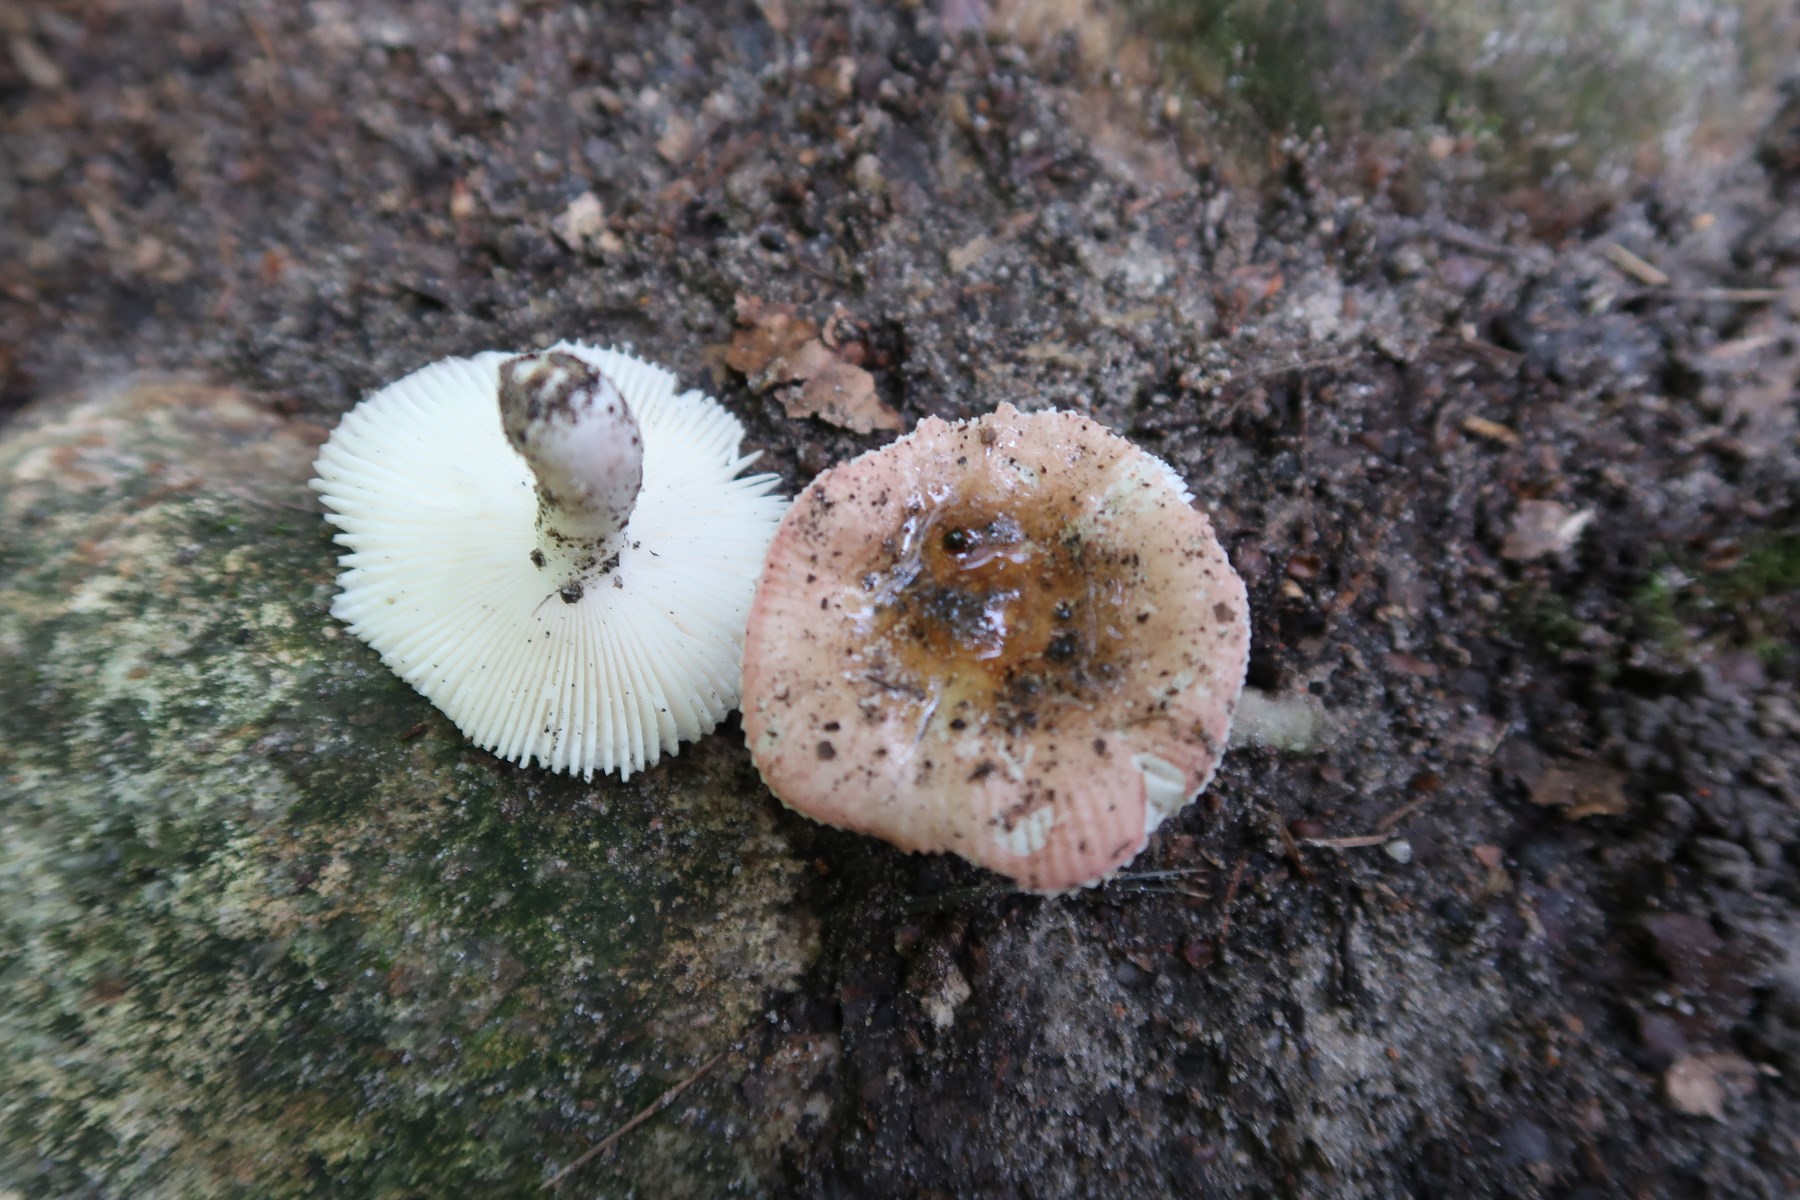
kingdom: Fungi
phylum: Basidiomycota
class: Agaricomycetes
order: Russulales
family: Russulaceae
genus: Russula
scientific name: Russula lilacea
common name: lilla skørhat
